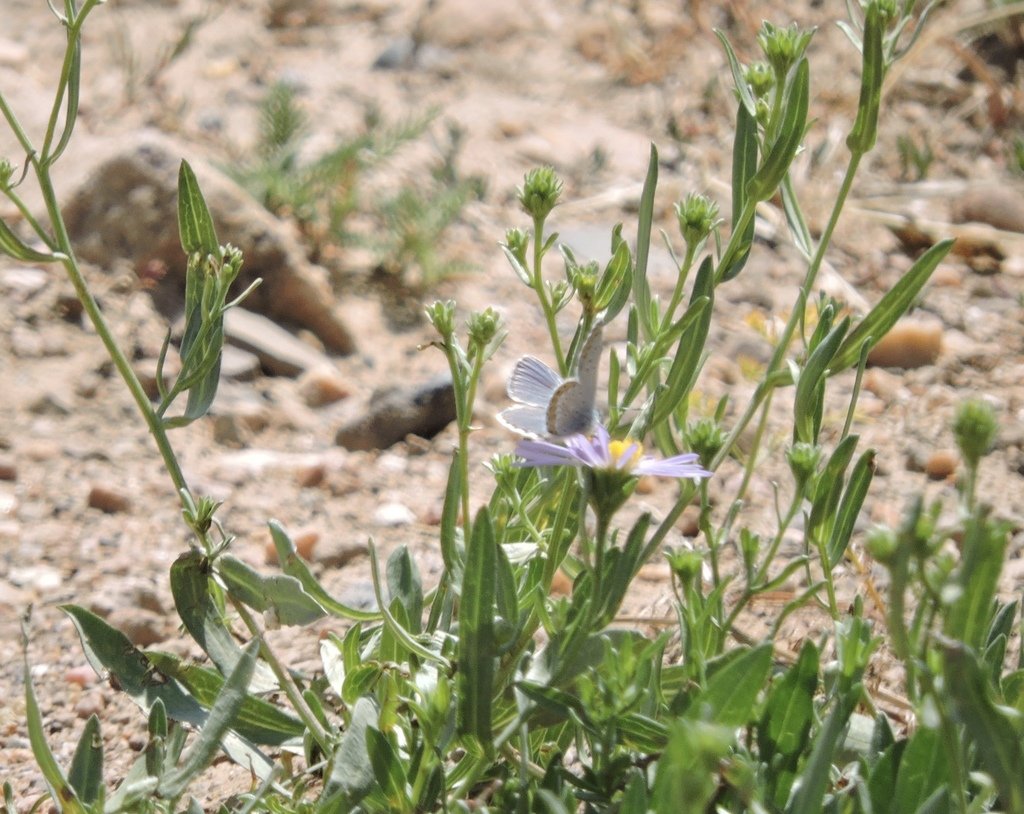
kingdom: Animalia
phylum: Arthropoda
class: Insecta
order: Lepidoptera
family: Lycaenidae
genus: Lycaeides
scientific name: Lycaeides melissa
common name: Melissa Blue
